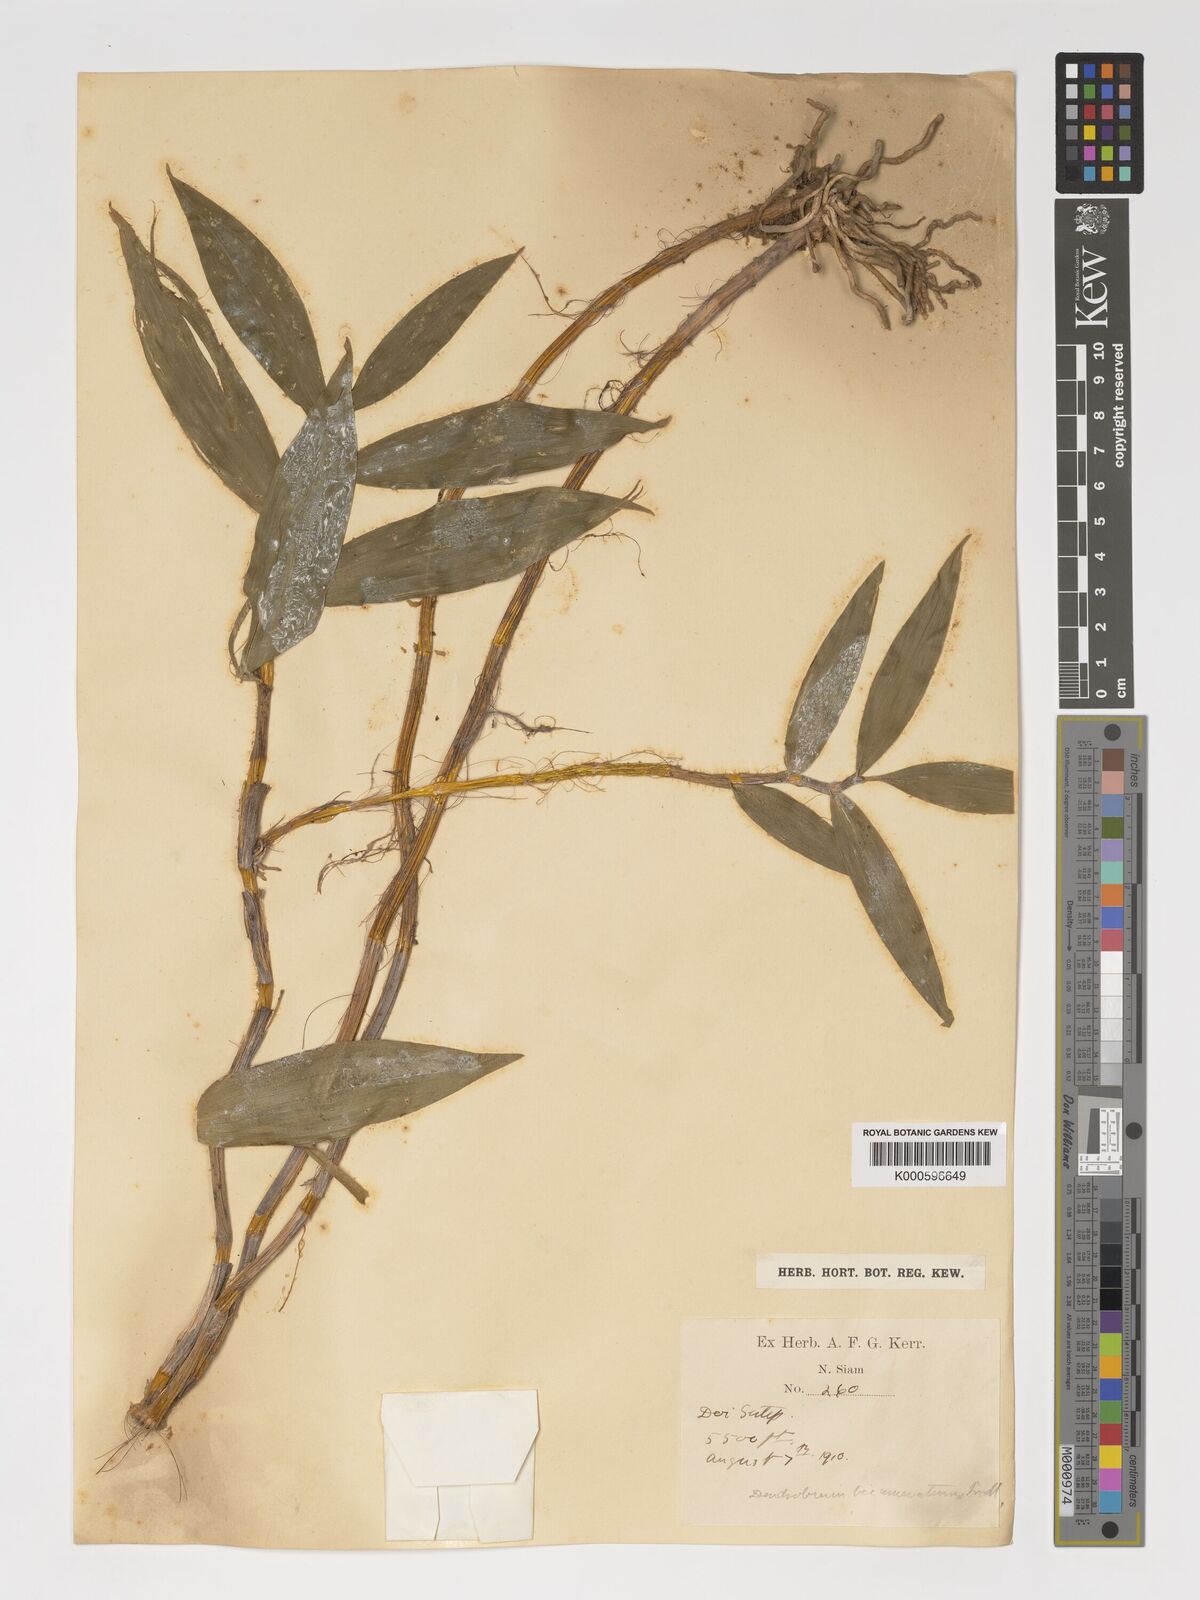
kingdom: Plantae
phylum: Tracheophyta
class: Liliopsida
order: Asparagales
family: Orchidaceae
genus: Dendrobium
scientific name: Dendrobium bicameratum
